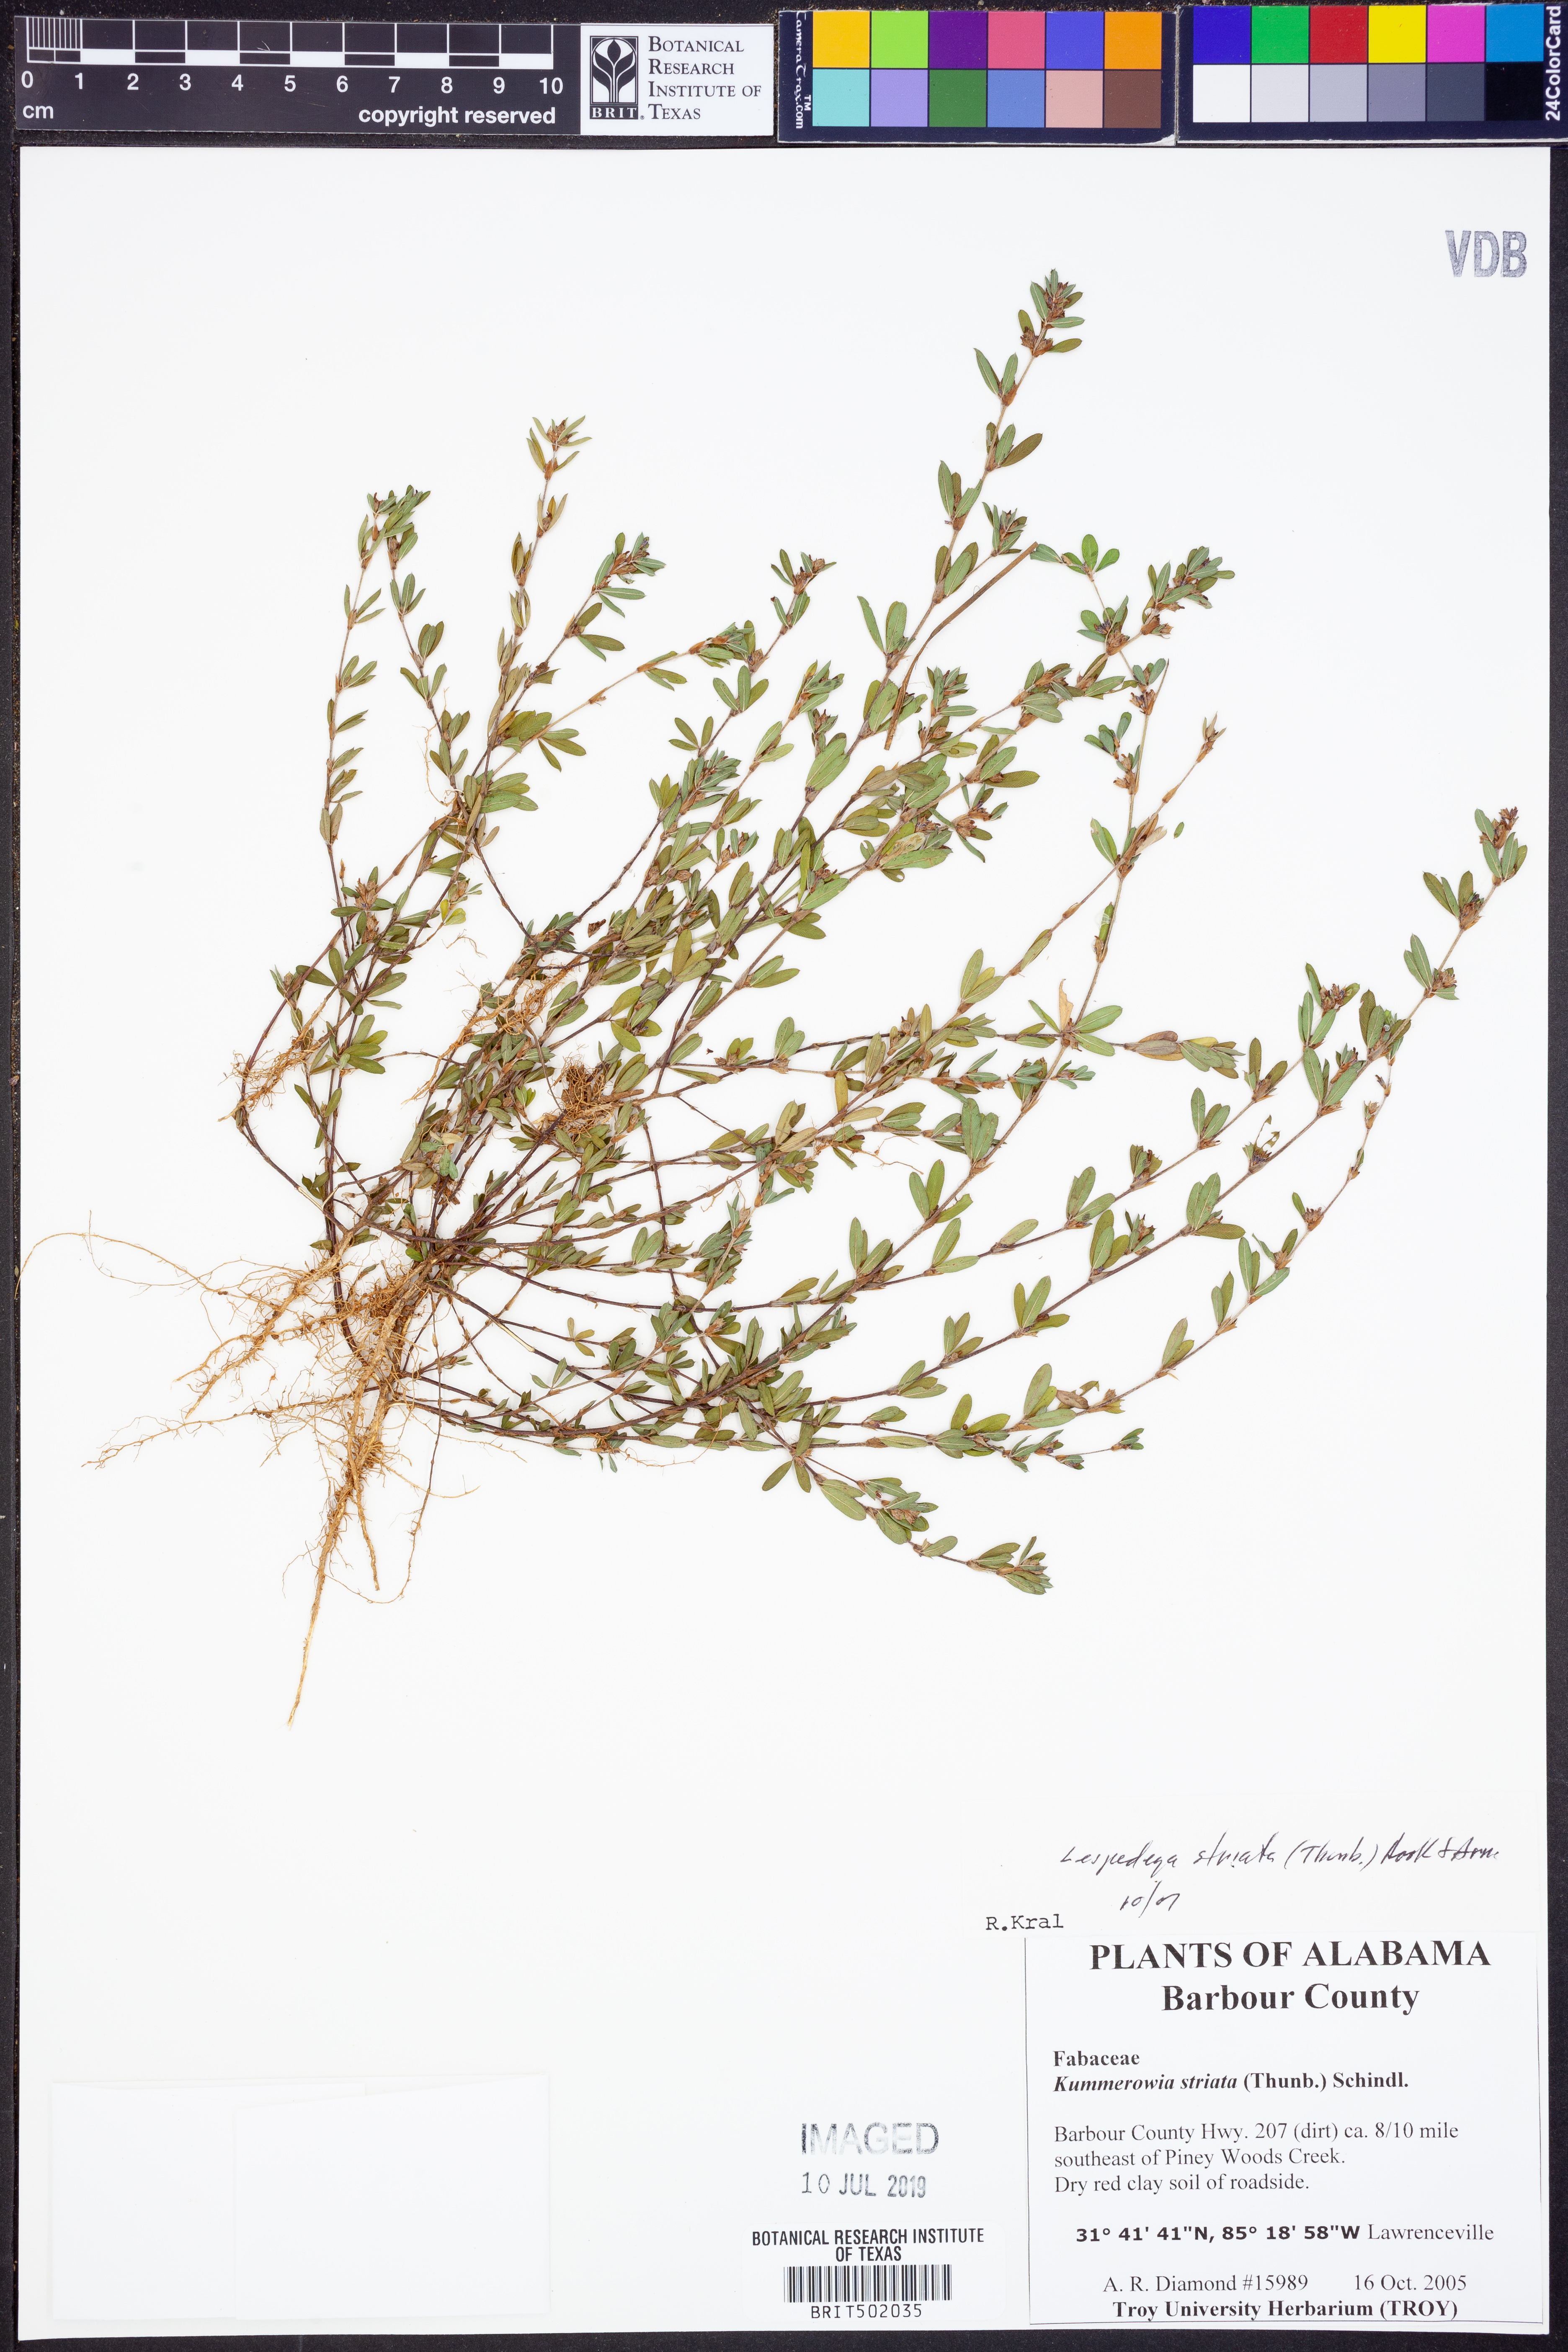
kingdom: Plantae
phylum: Tracheophyta
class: Magnoliopsida
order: Fabales
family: Fabaceae
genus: Kummerowia
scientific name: Kummerowia striata
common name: Japanese clover
